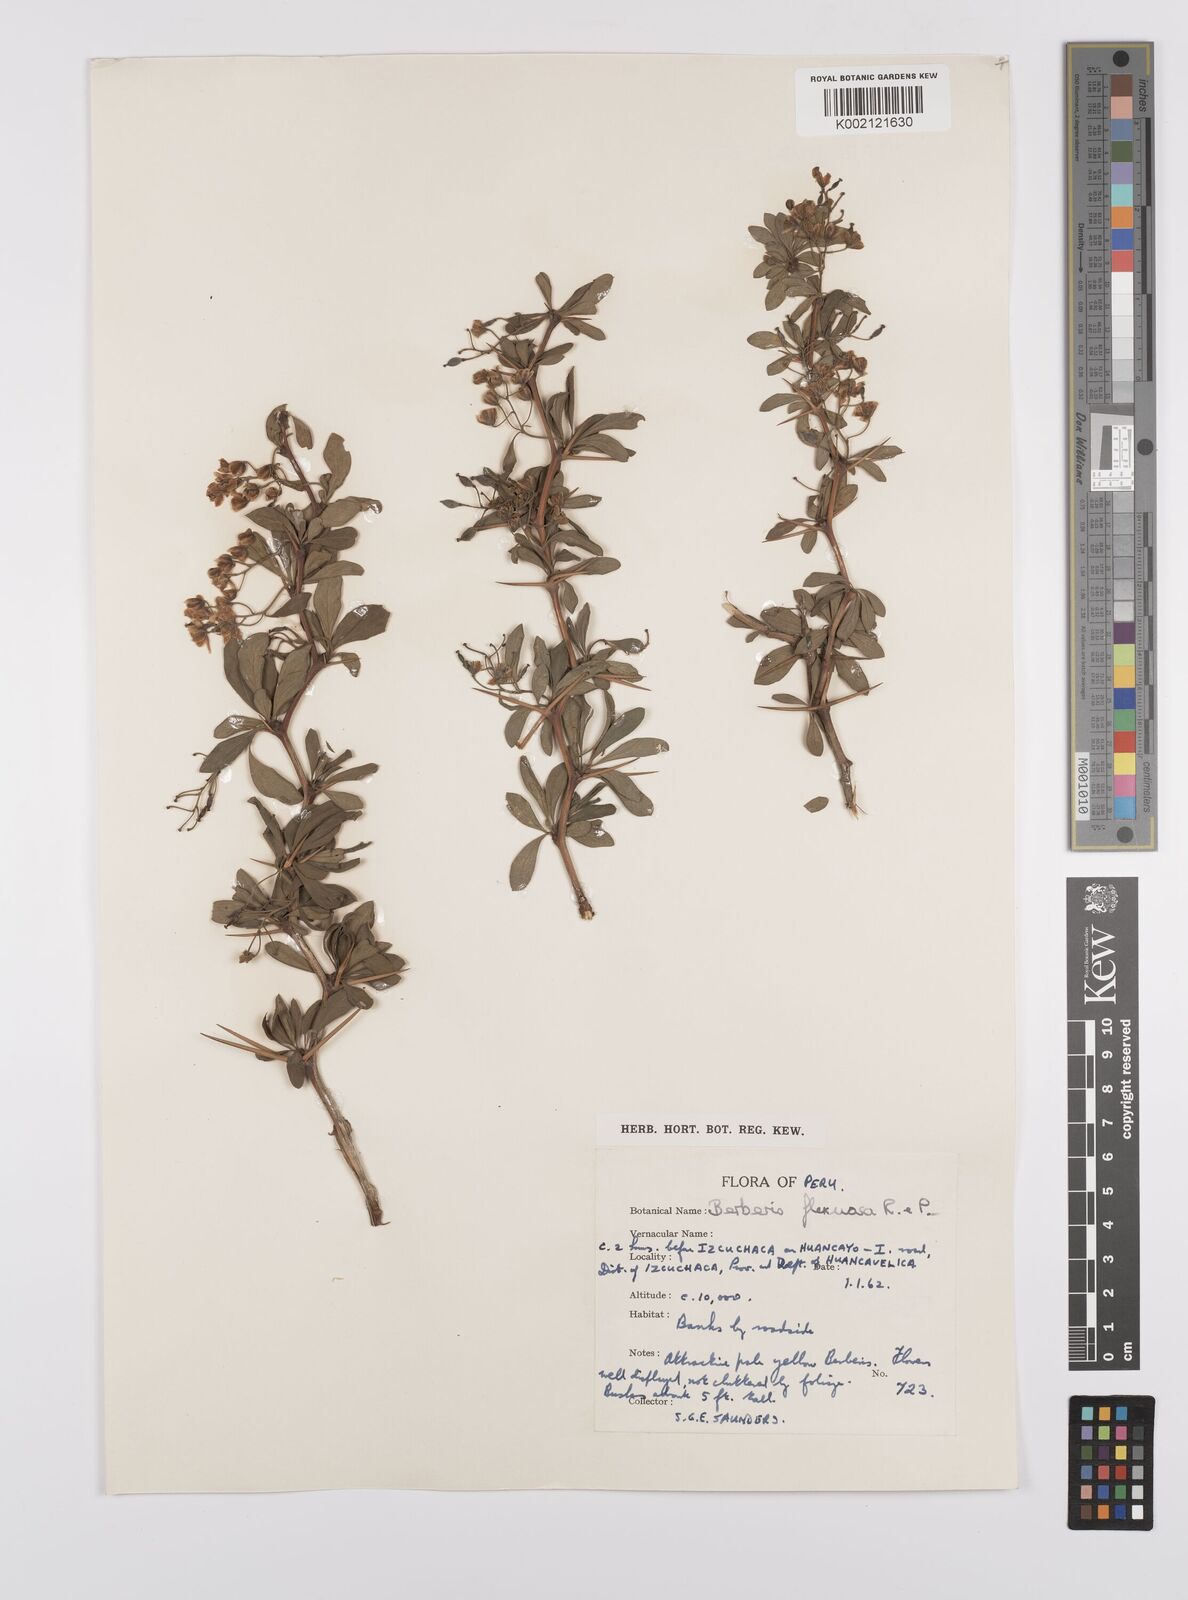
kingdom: Plantae
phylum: Tracheophyta
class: Magnoliopsida
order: Ranunculales
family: Berberidaceae
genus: Berberis
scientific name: Berberis flexuosa
